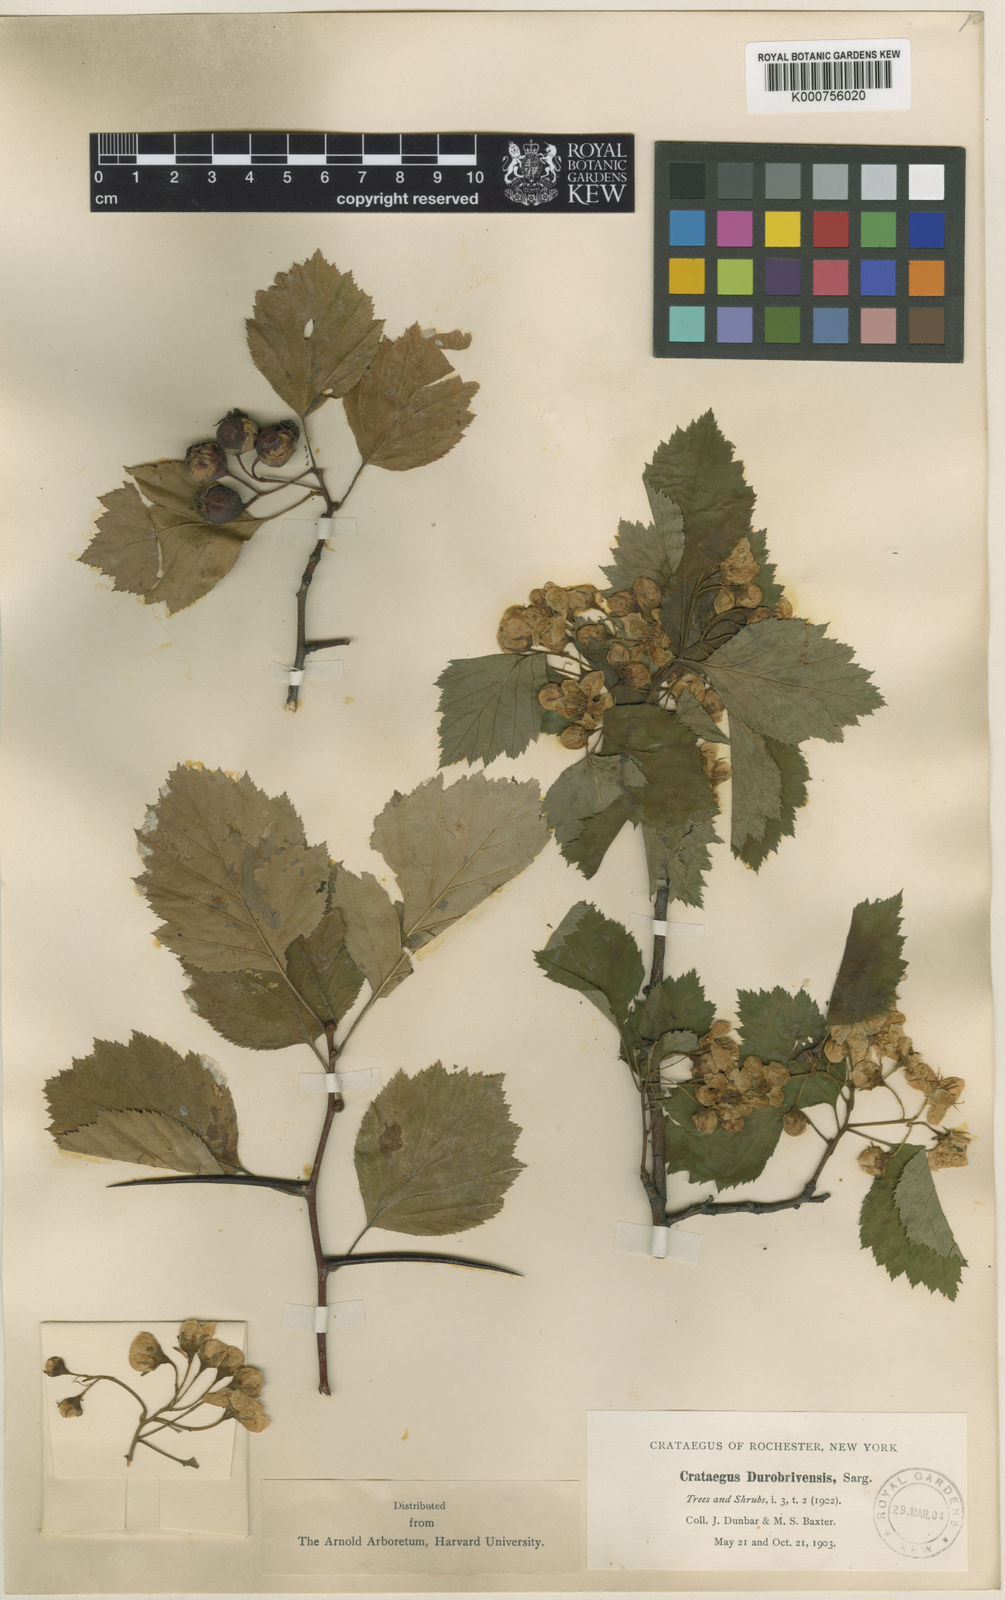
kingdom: Plantae
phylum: Tracheophyta
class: Magnoliopsida
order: Rosales
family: Rosaceae
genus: Crataegus
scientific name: Crataegus pruinosa
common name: Waxy-fruit hawthorn
